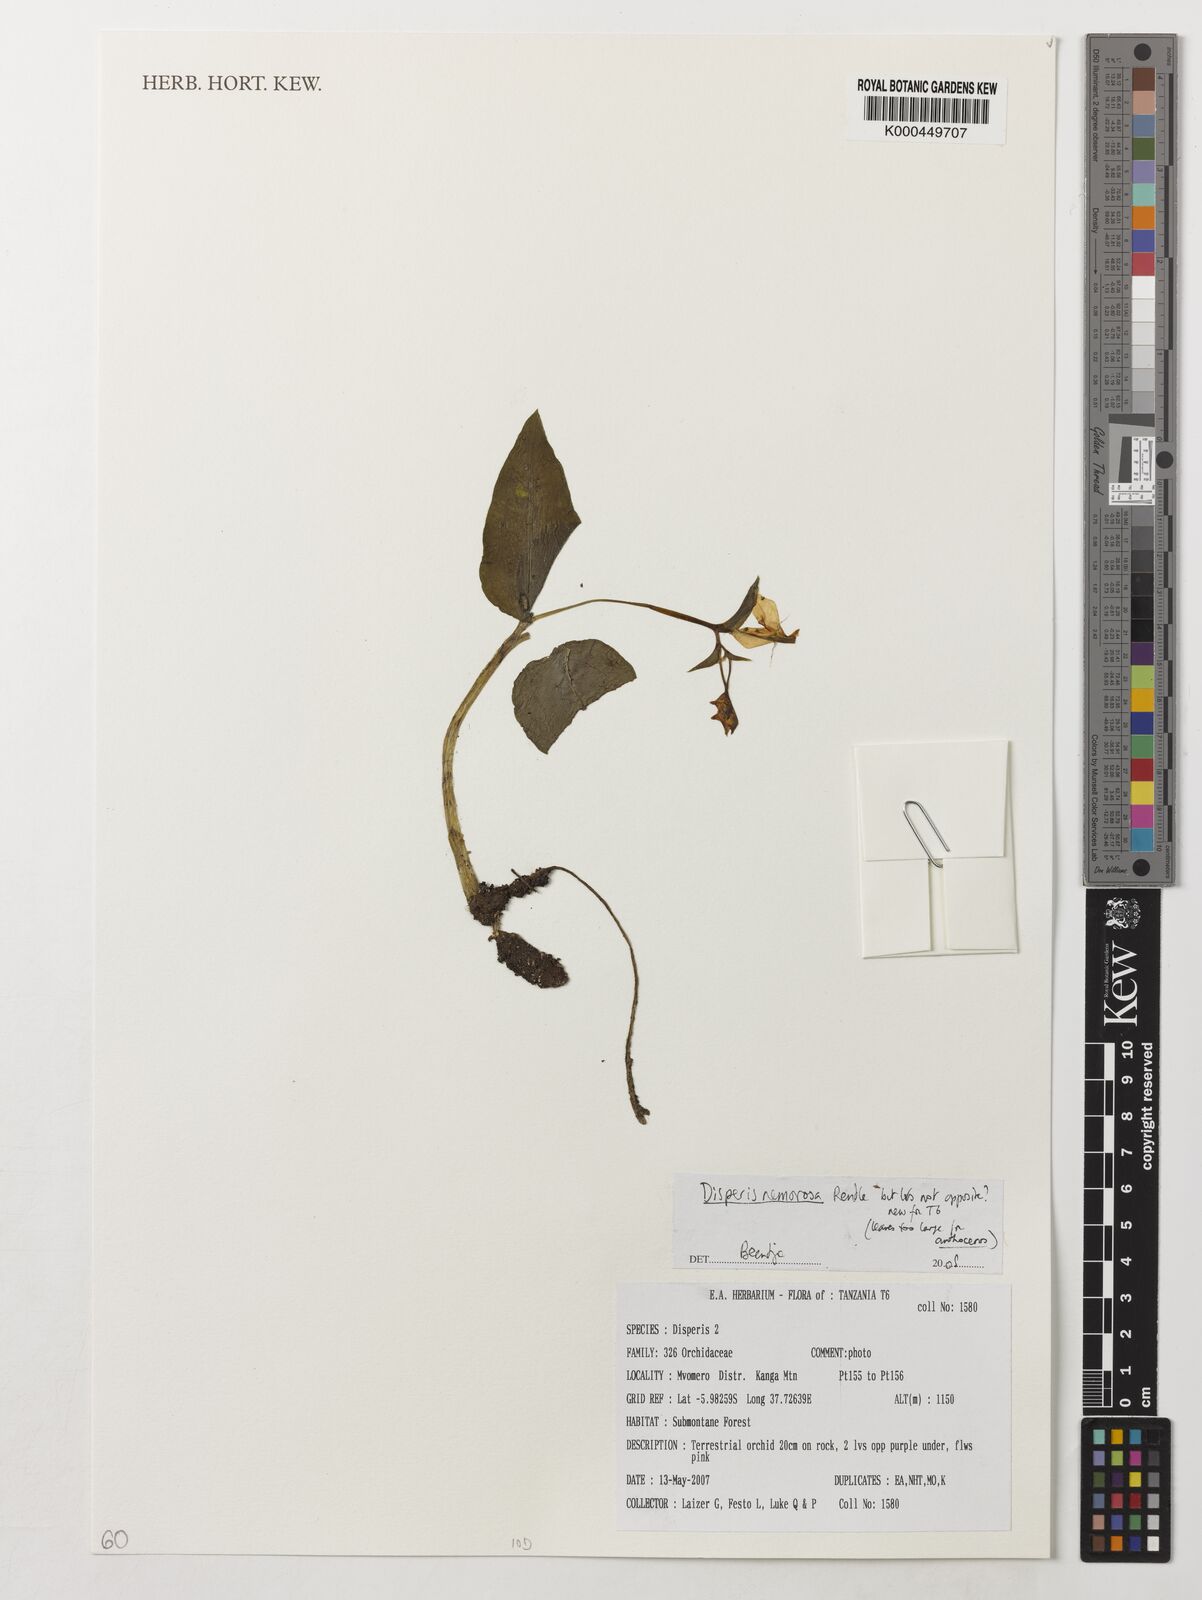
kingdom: Plantae
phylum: Tracheophyta
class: Liliopsida
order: Asparagales
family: Orchidaceae
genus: Disperis
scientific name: Disperis nemorosa
